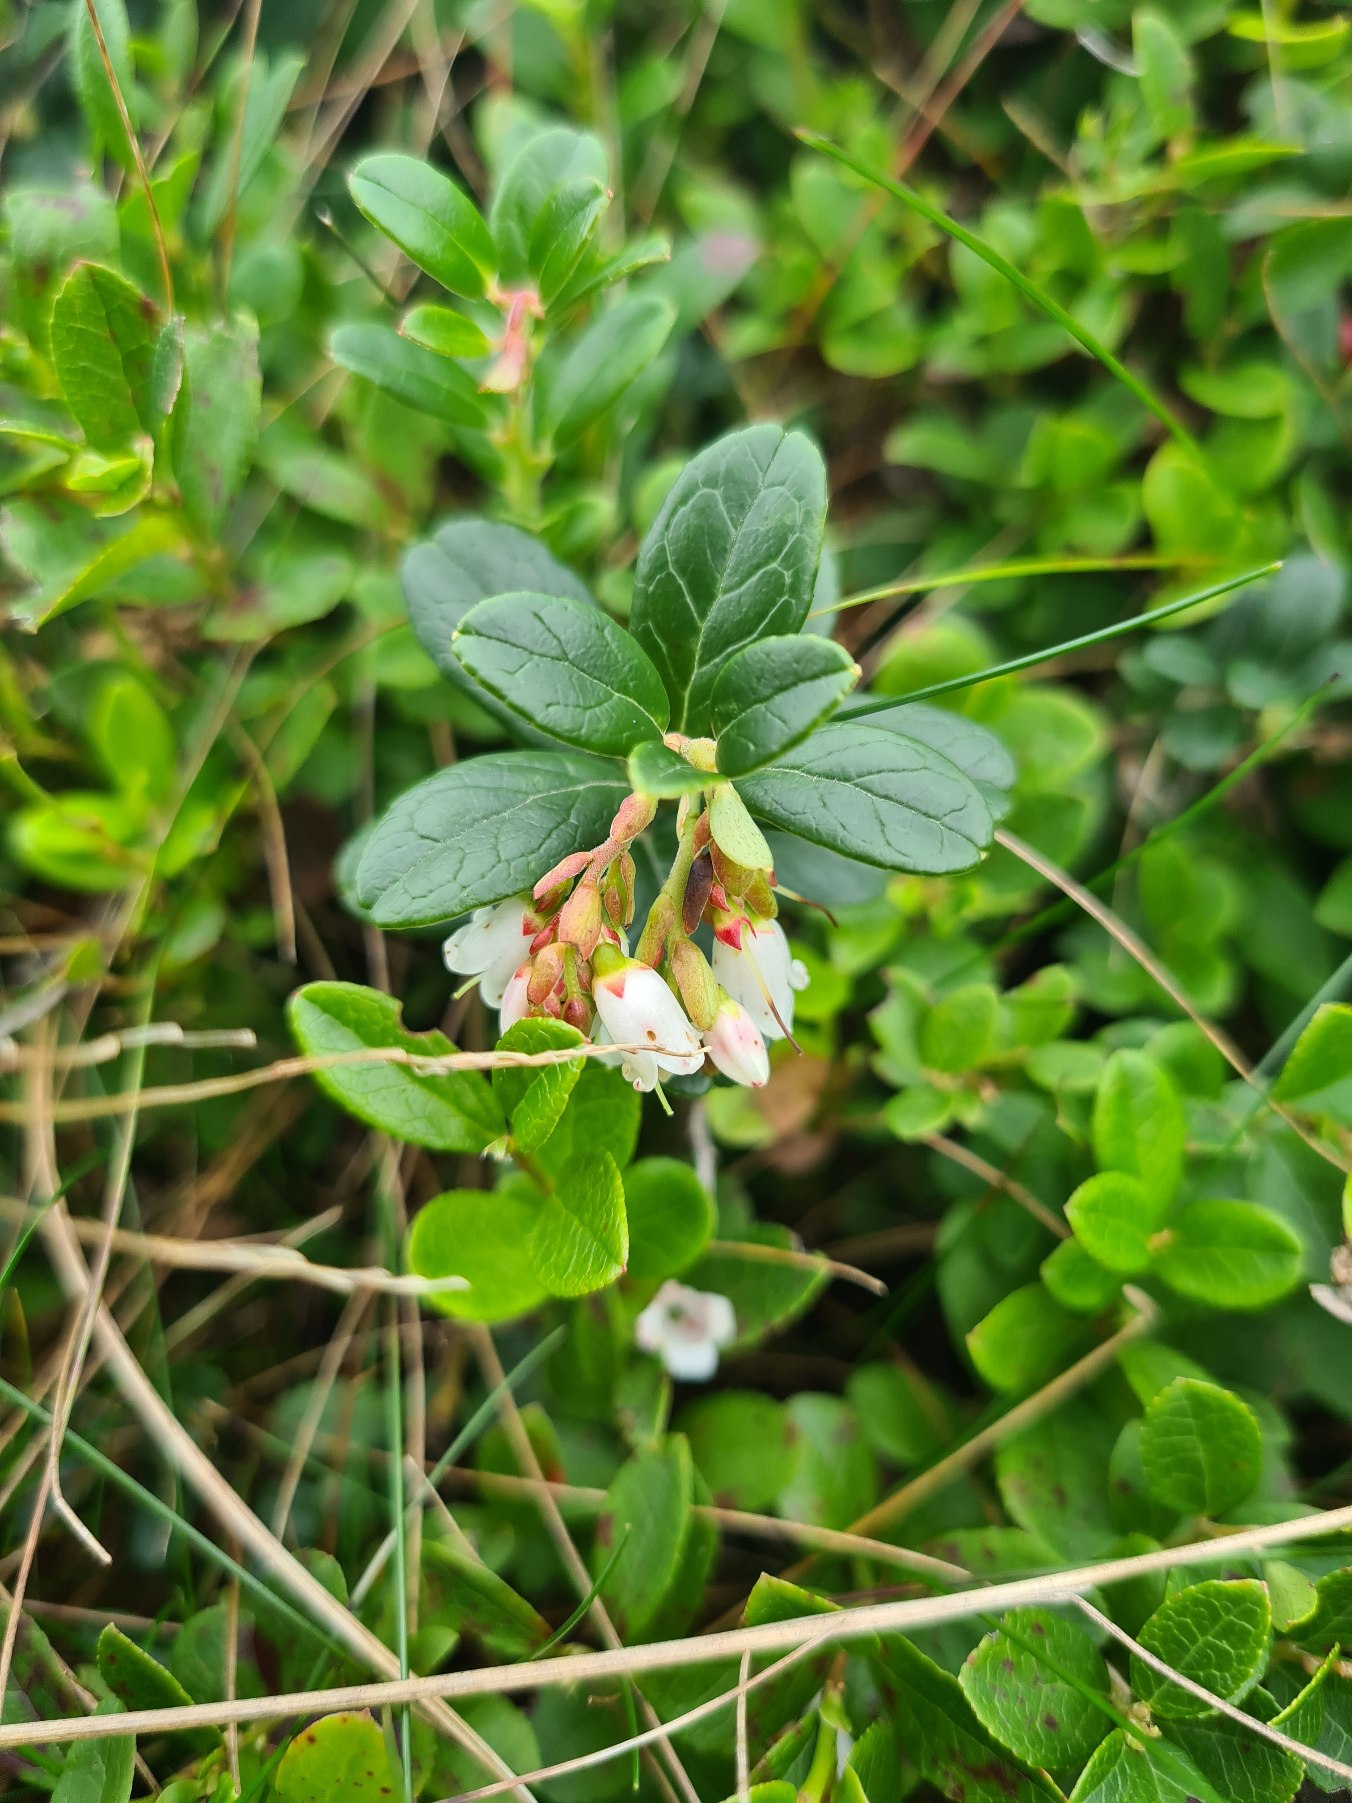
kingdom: Plantae
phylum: Tracheophyta
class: Magnoliopsida
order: Ericales
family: Ericaceae
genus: Vaccinium
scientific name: Vaccinium vitis-idaea
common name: Tyttebær
